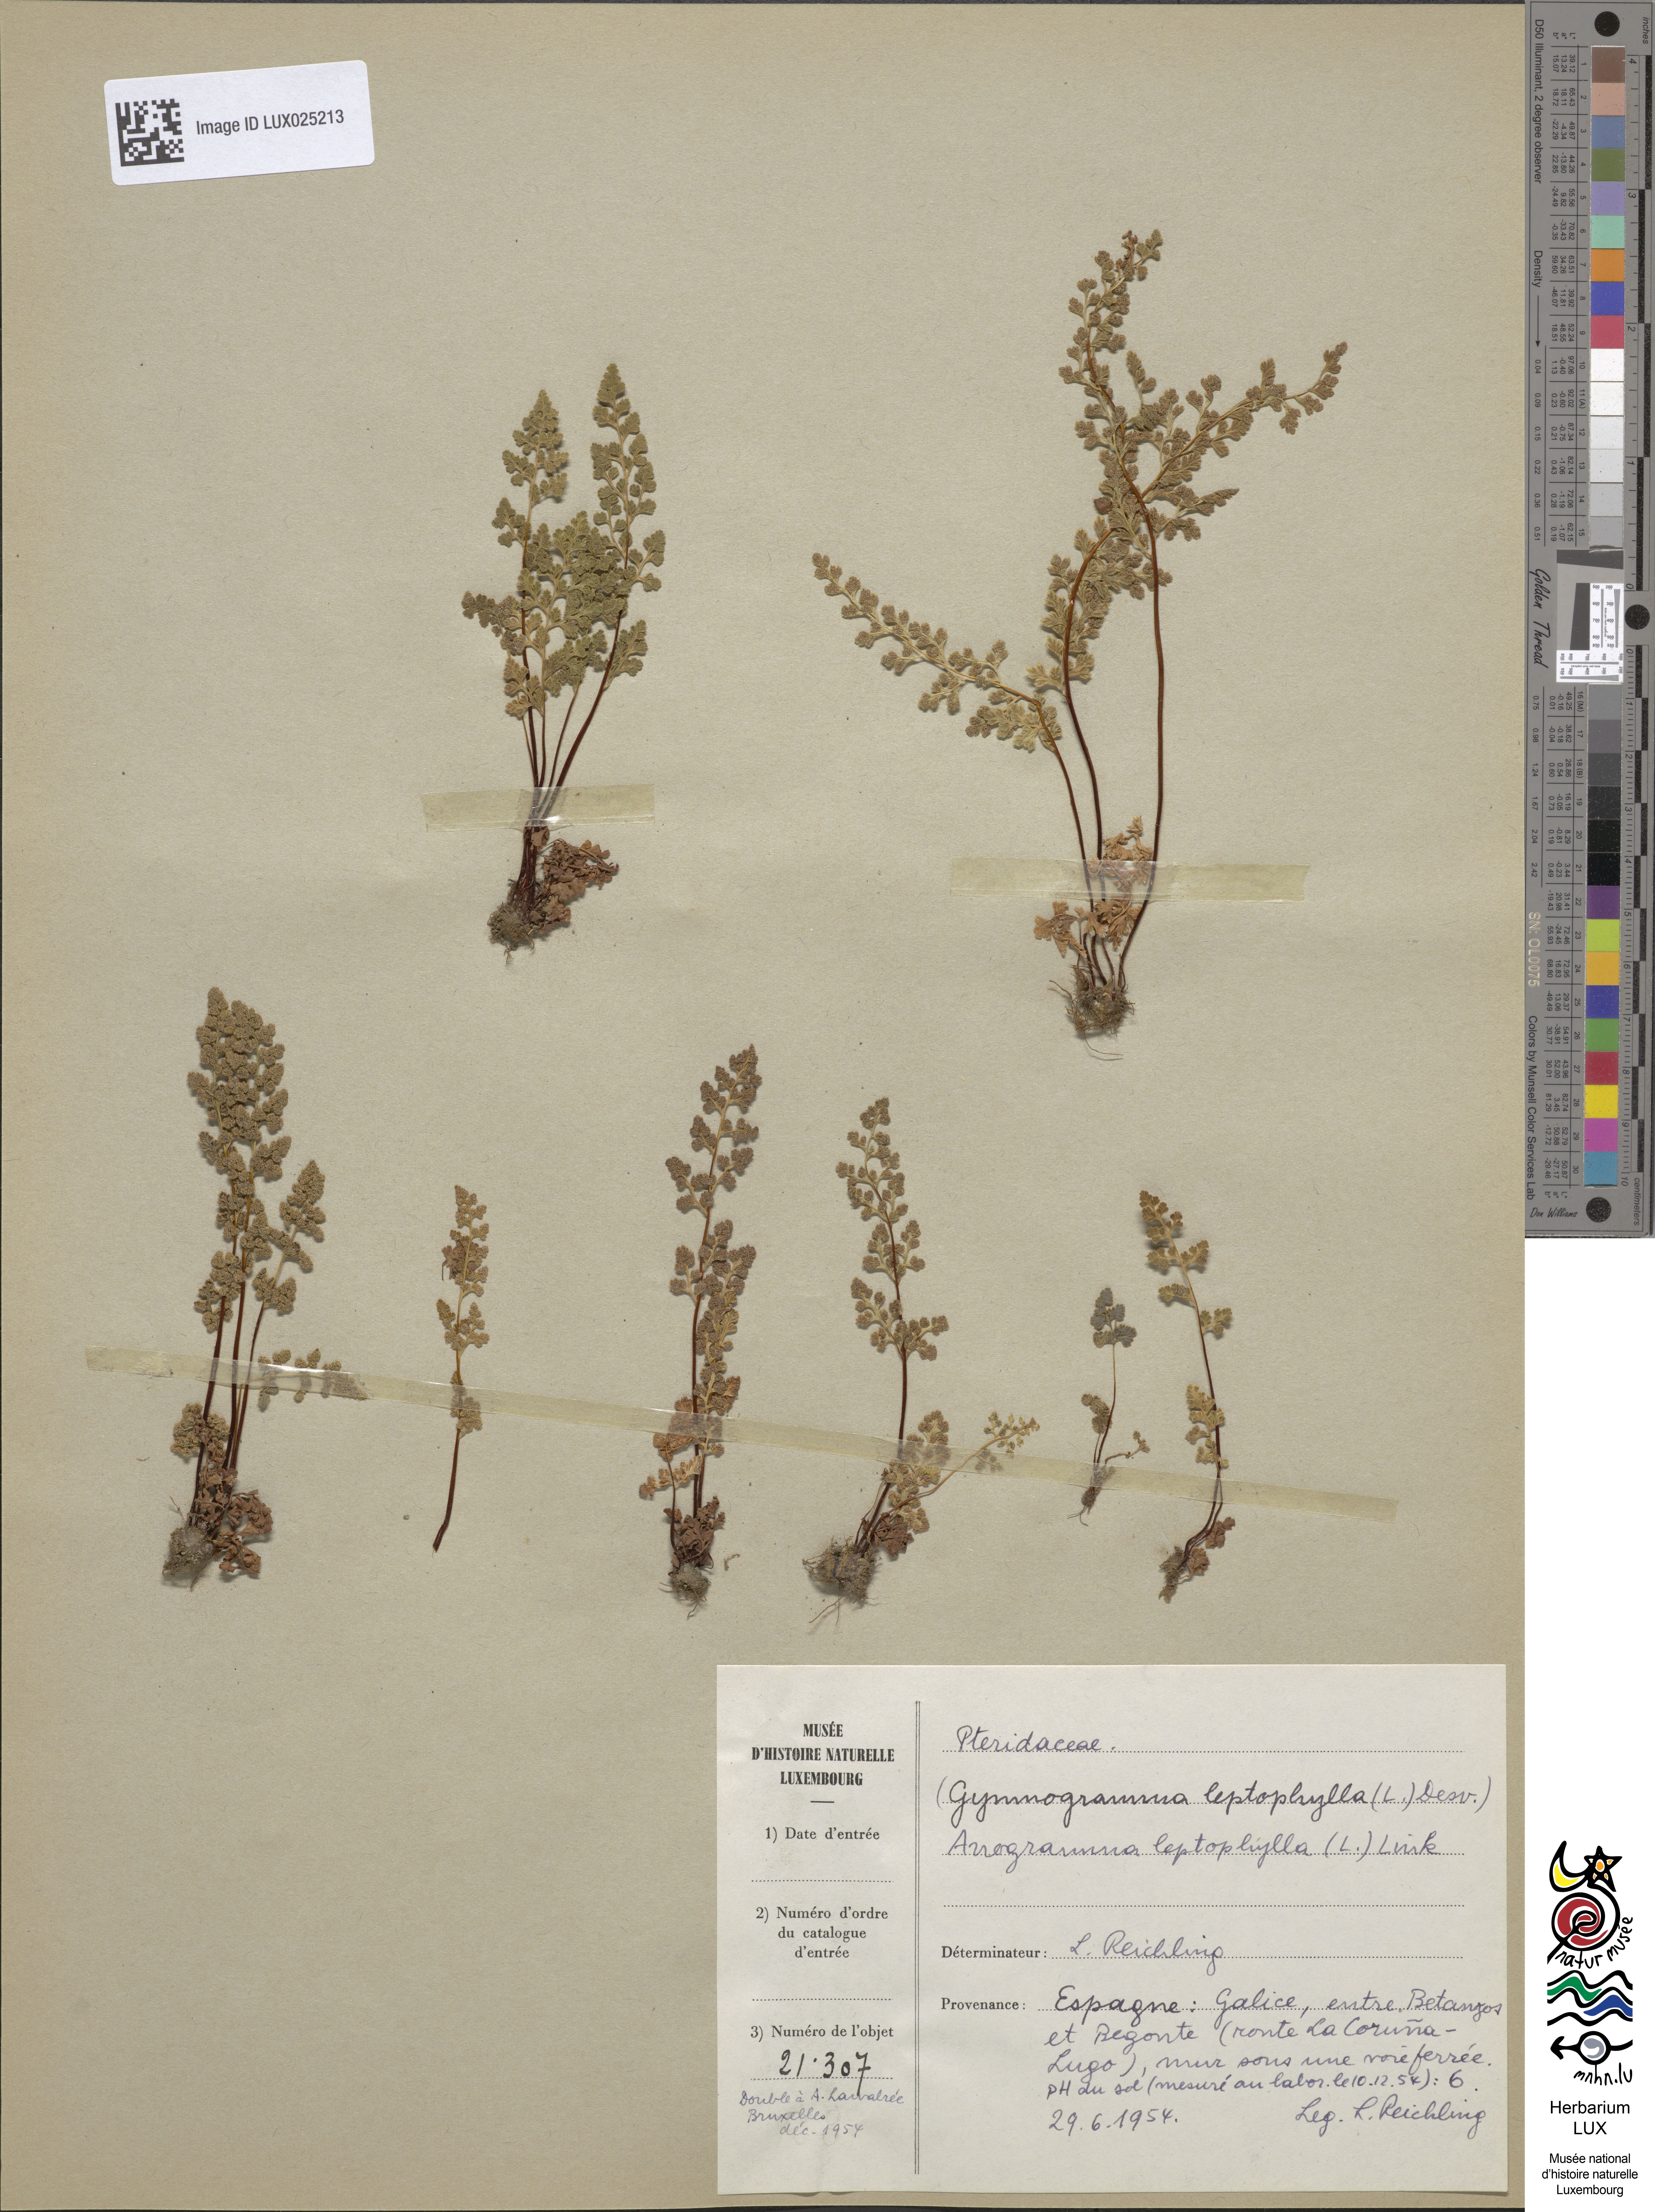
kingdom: Plantae
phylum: Tracheophyta
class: Polypodiopsida
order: Polypodiales
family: Pteridaceae
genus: Anogramma
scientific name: Anogramma leptophylla
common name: Jersey fern
